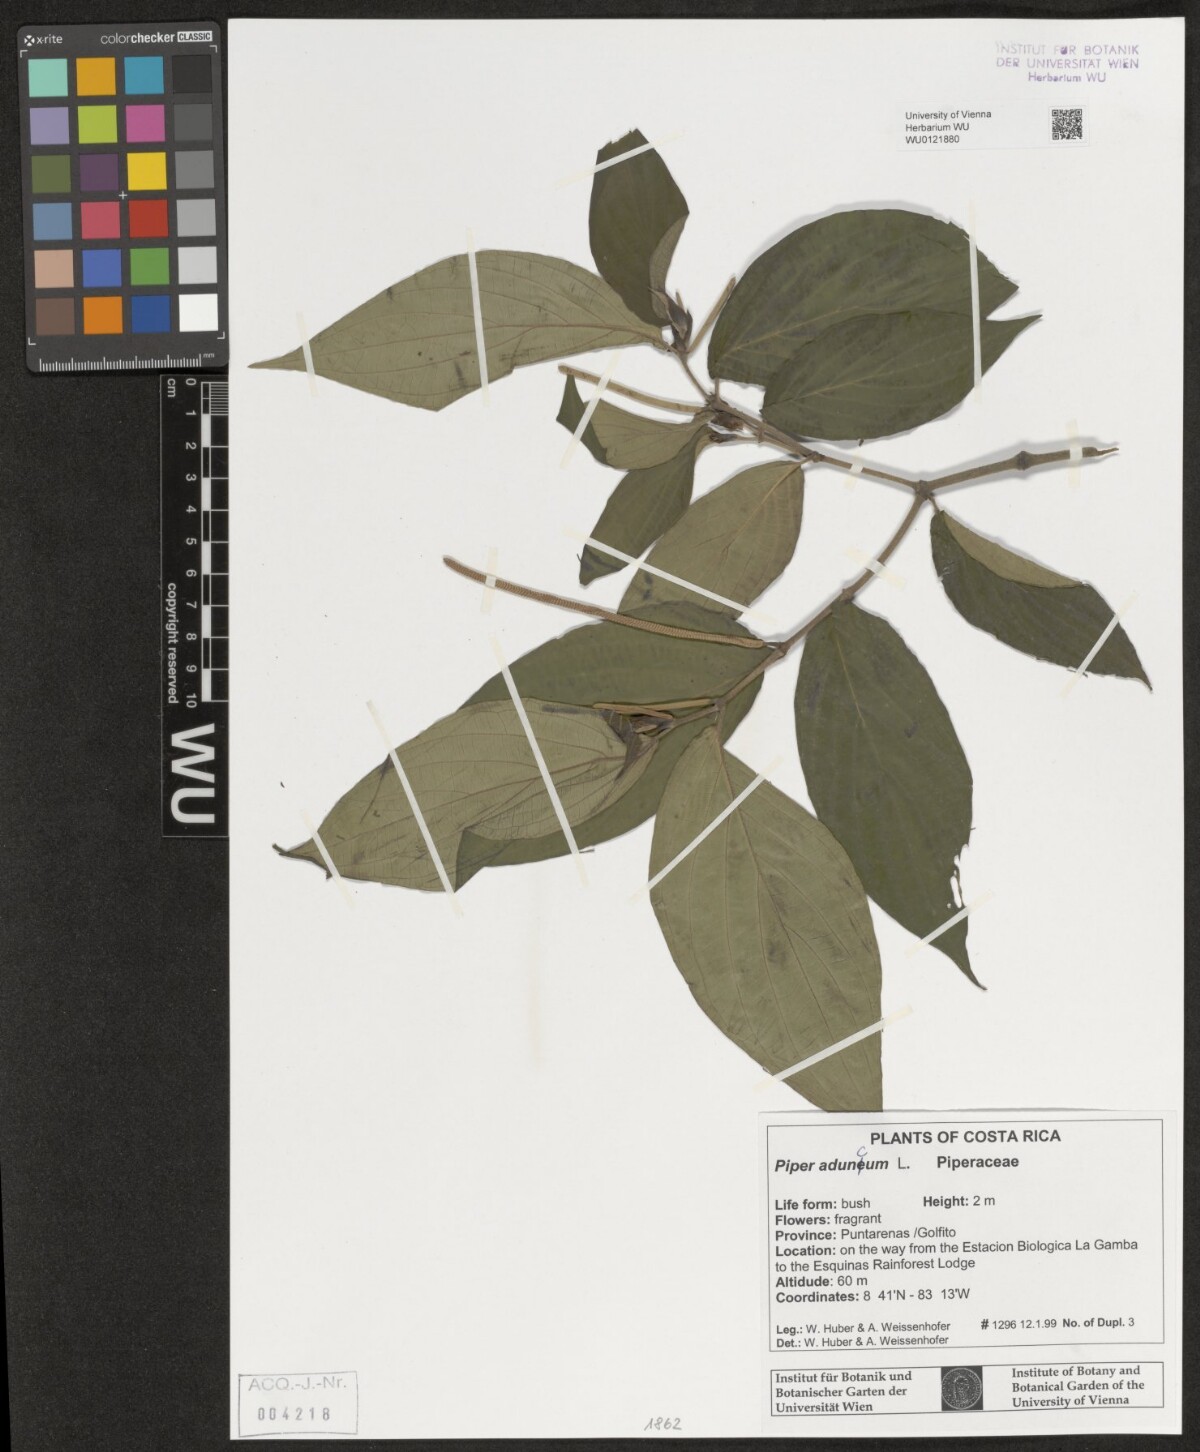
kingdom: Plantae
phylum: Tracheophyta
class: Magnoliopsida
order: Piperales
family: Piperaceae
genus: Piper
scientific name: Piper aduncum
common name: Spiked pepper
